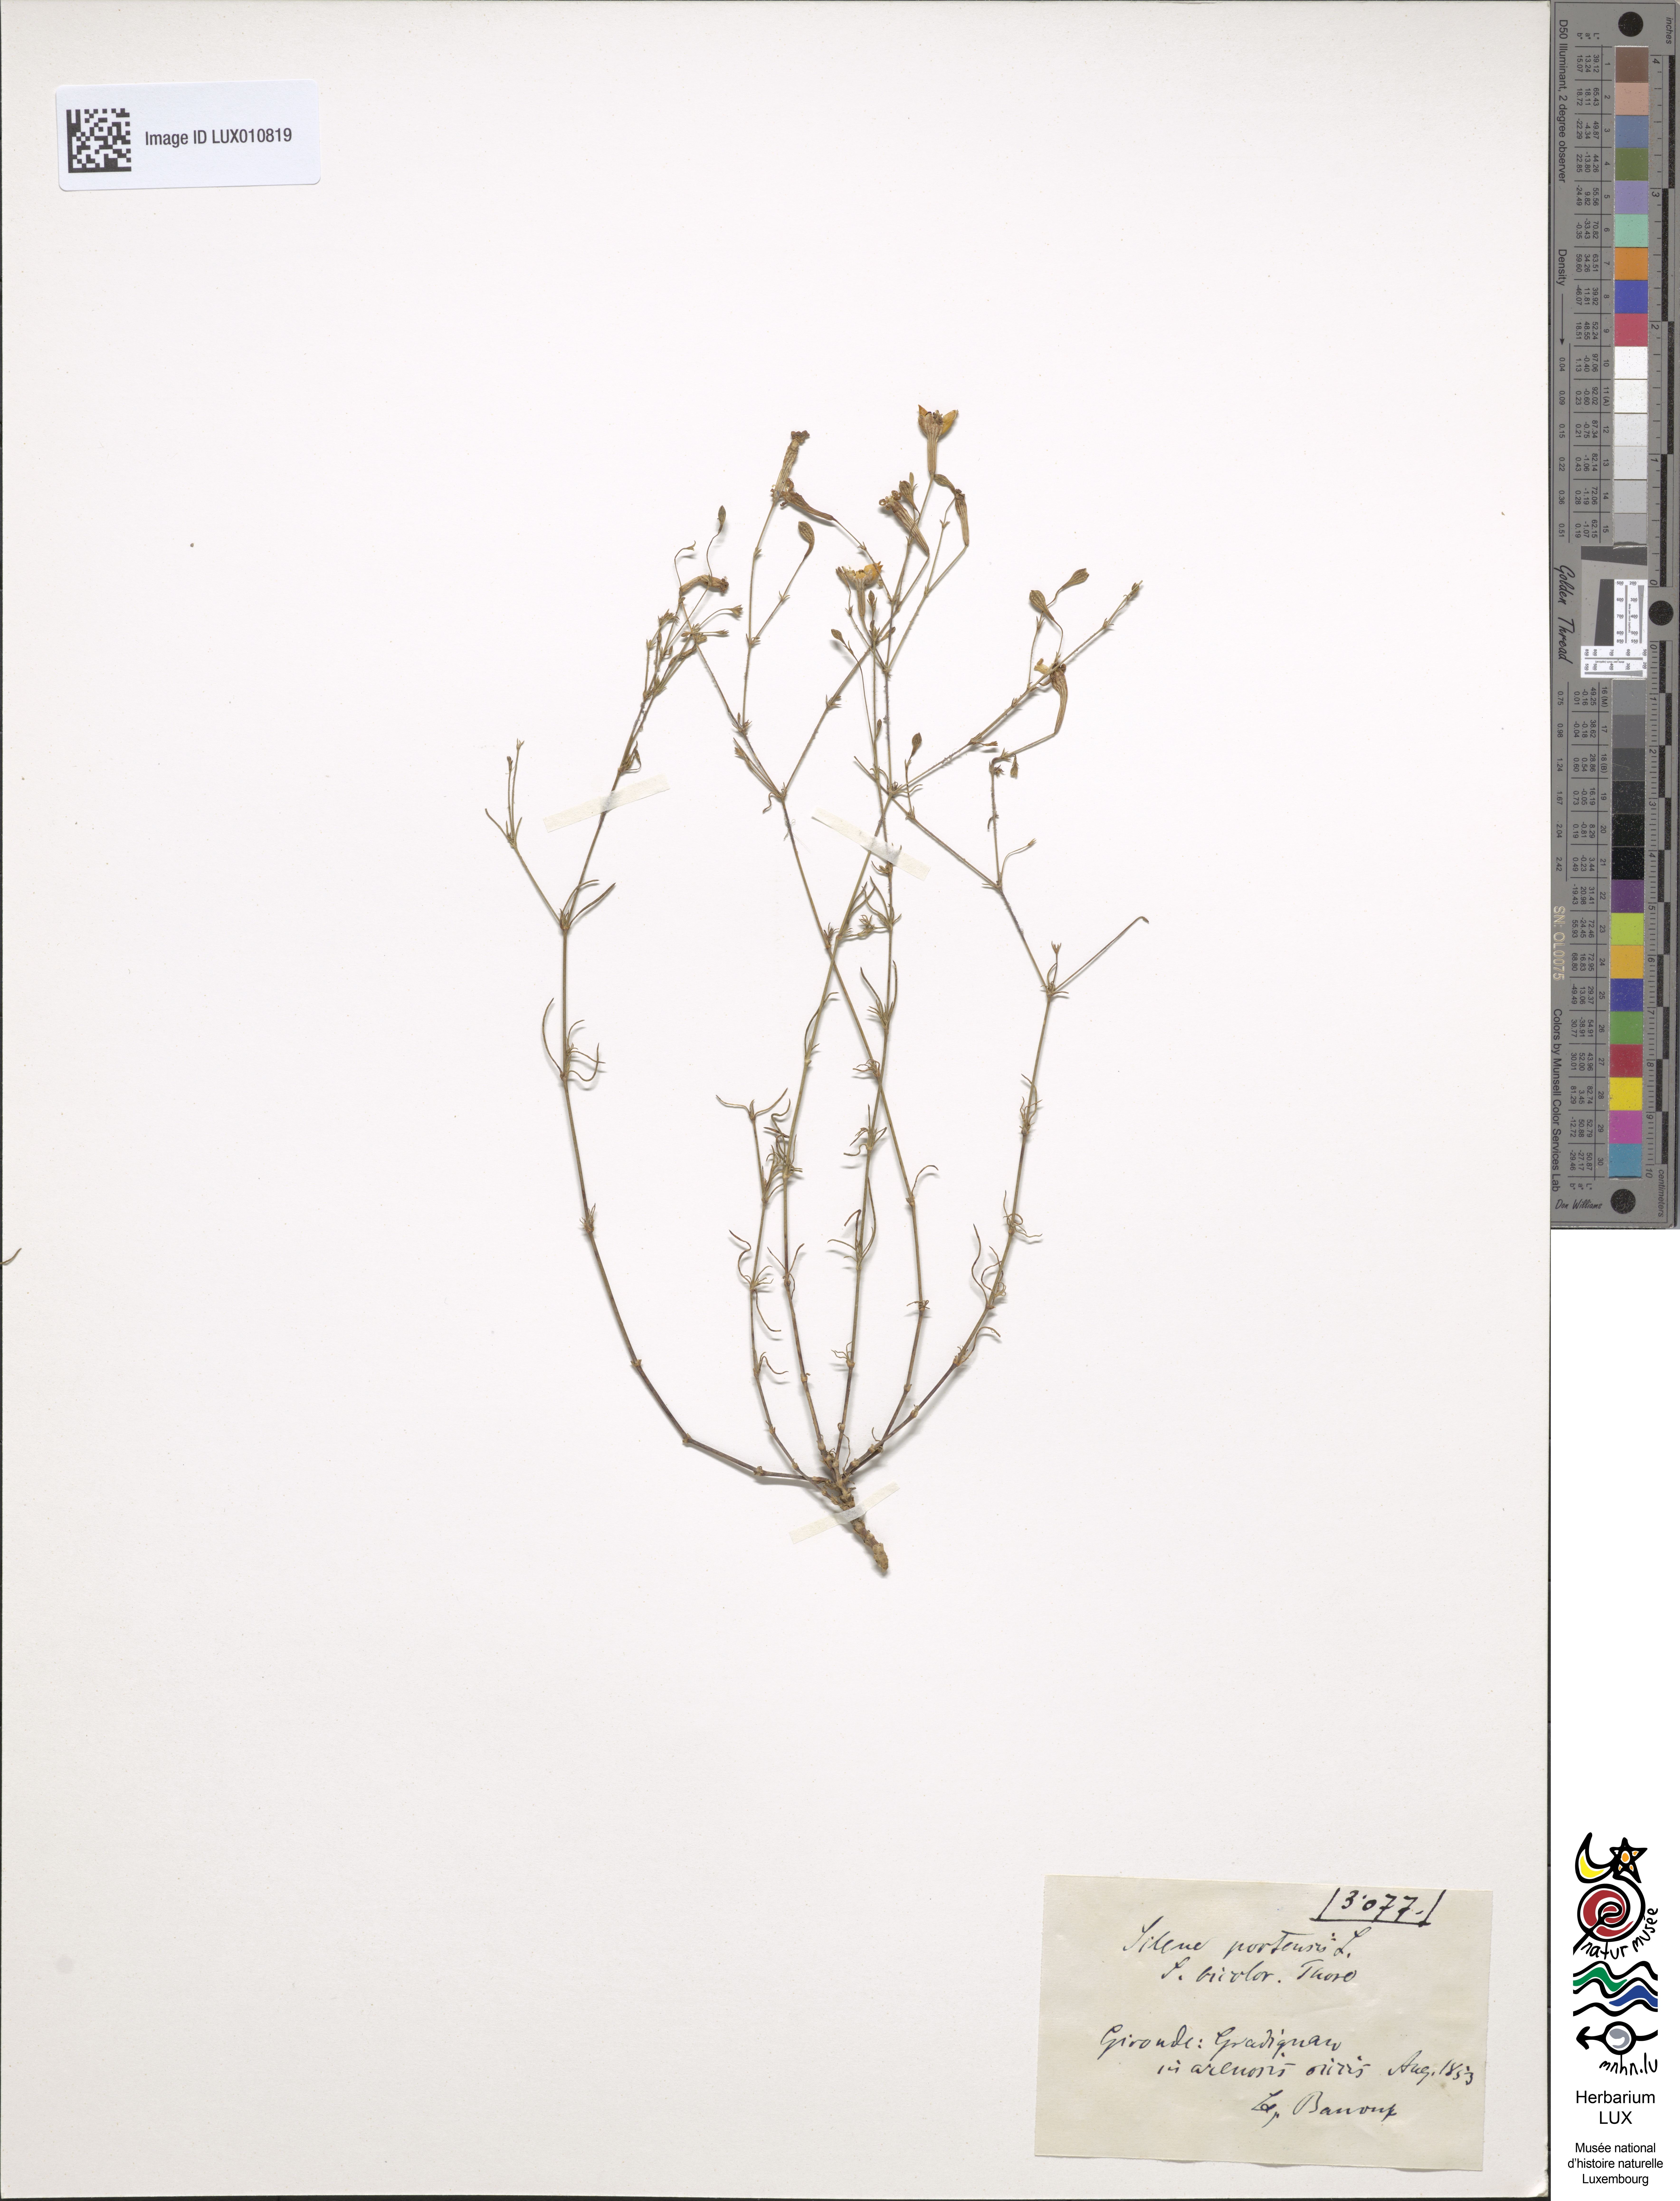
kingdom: Plantae
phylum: Tracheophyta
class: Magnoliopsida
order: Caryophyllales
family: Caryophyllaceae
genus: Silene
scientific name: Silene portensis
